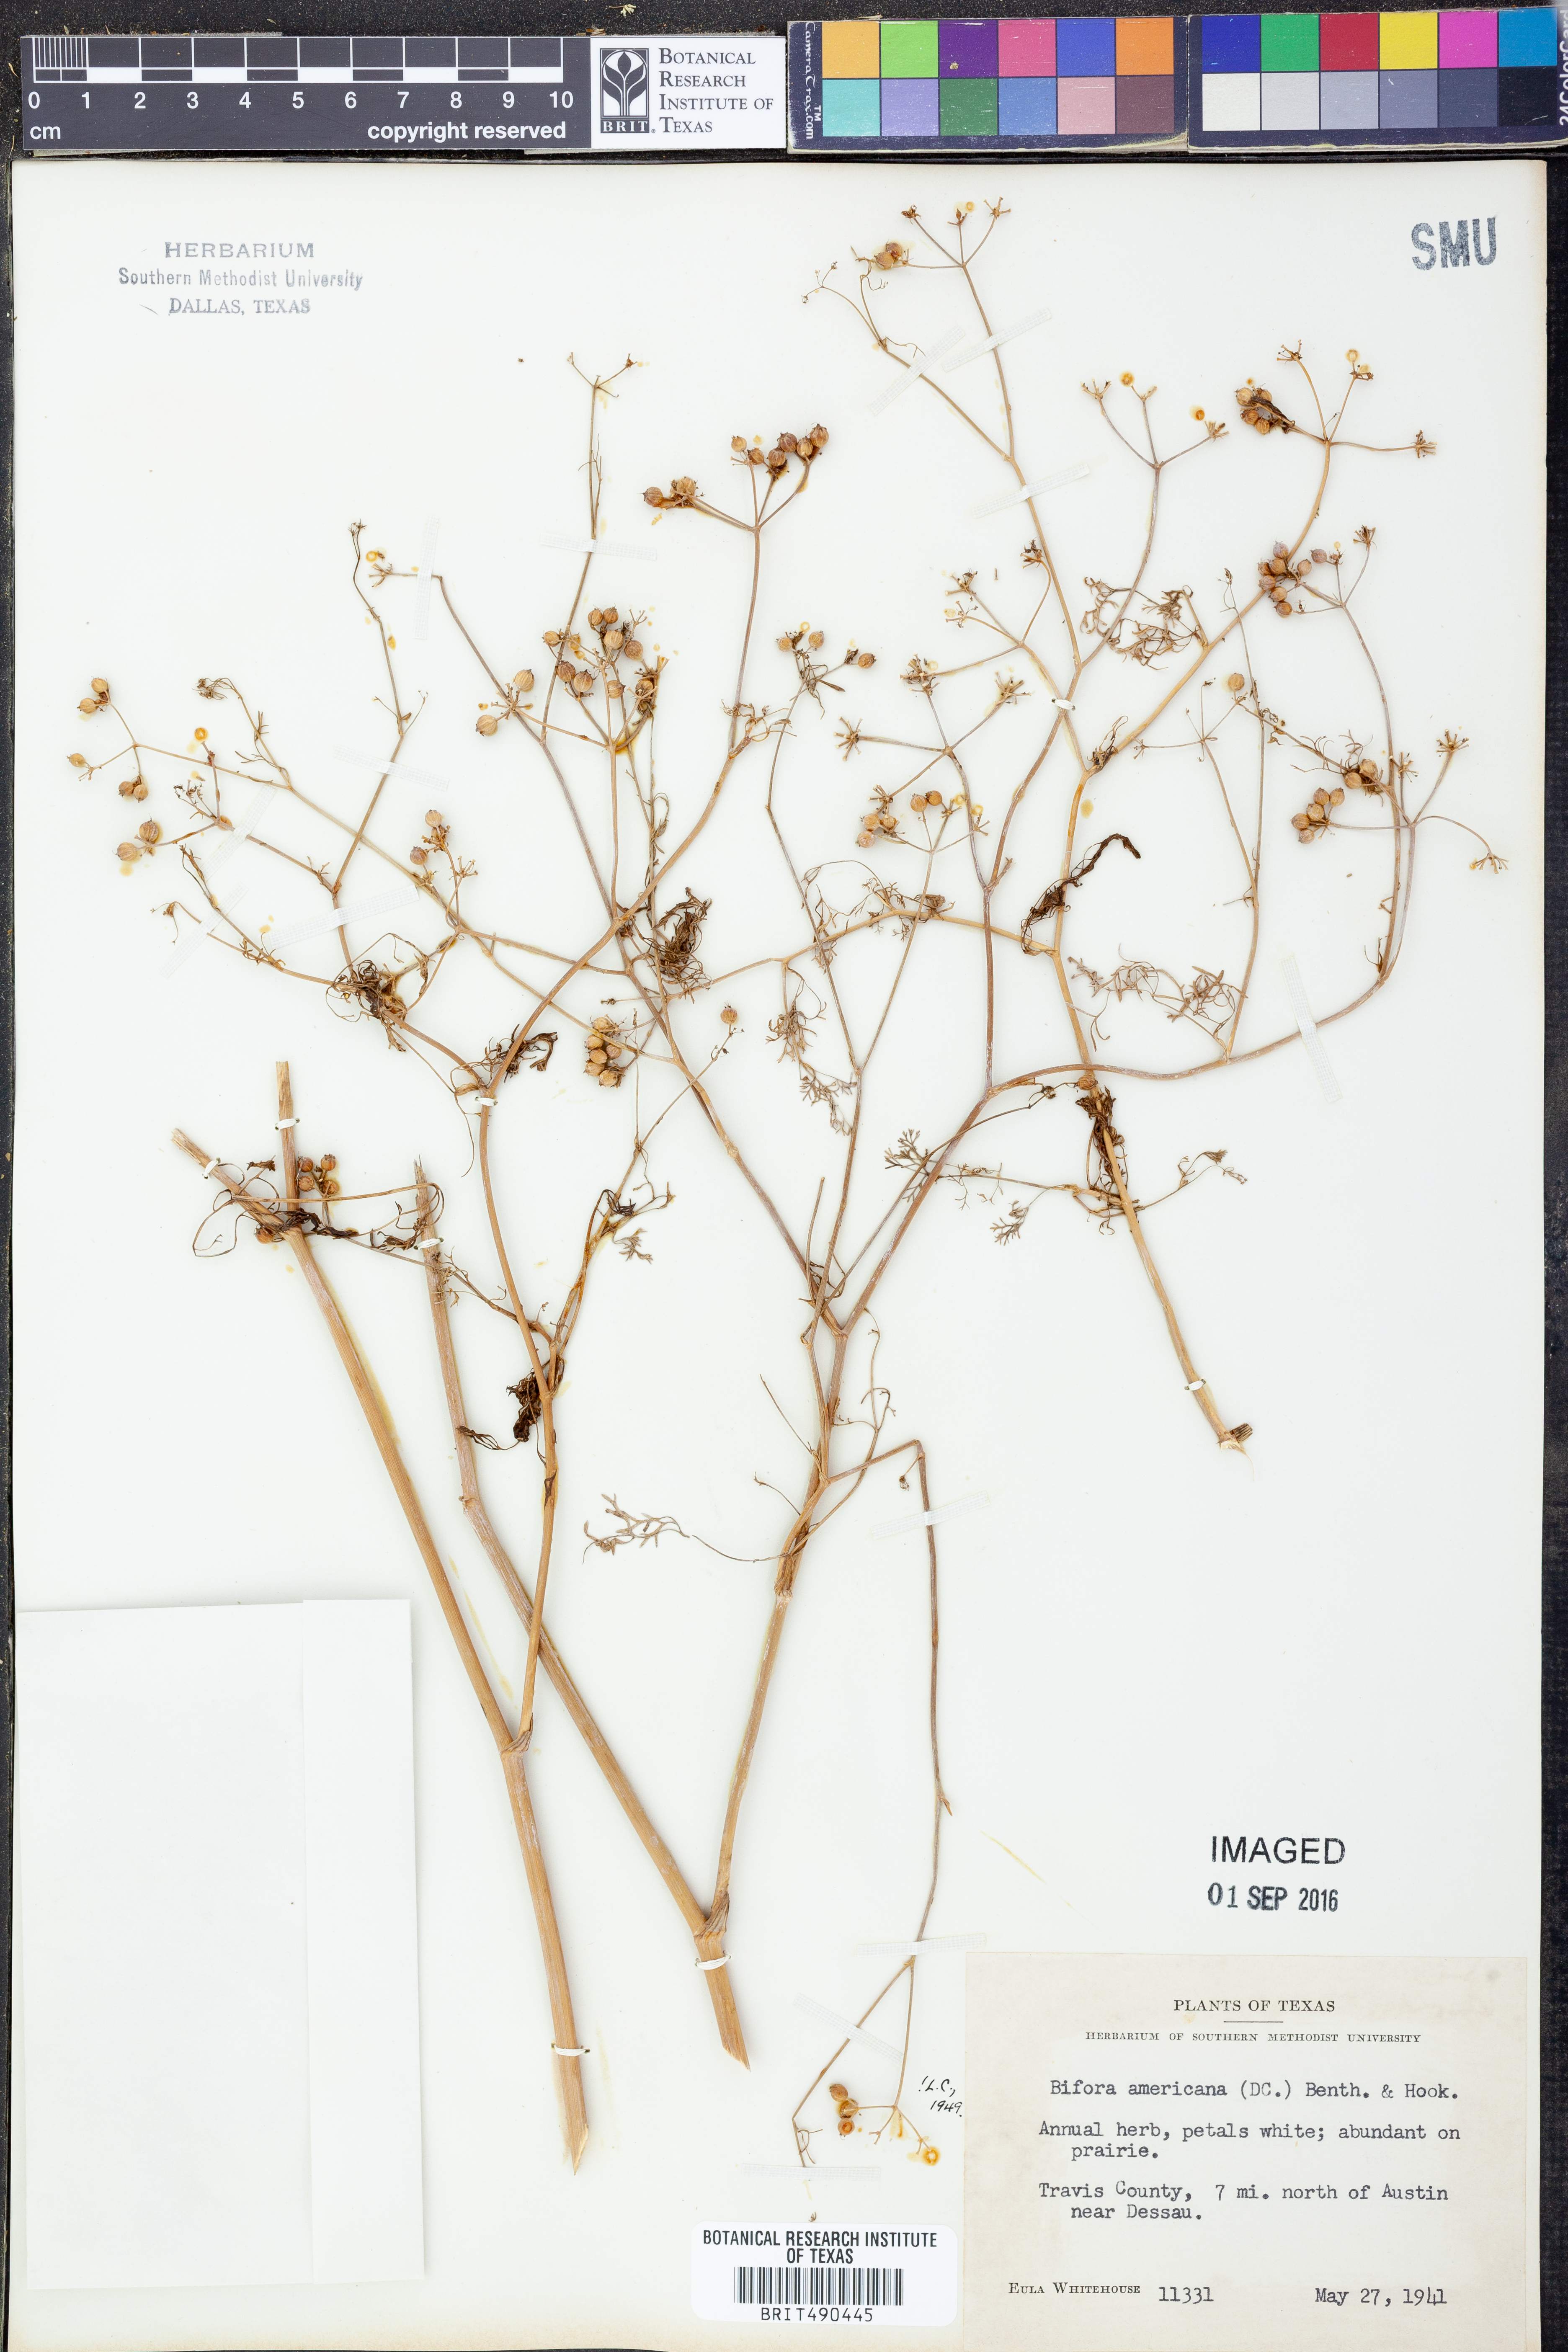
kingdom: Plantae
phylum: Tracheophyta
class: Magnoliopsida
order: Apiales
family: Apiaceae
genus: Atrema
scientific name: Atrema americanum
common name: Prairie-bishop
